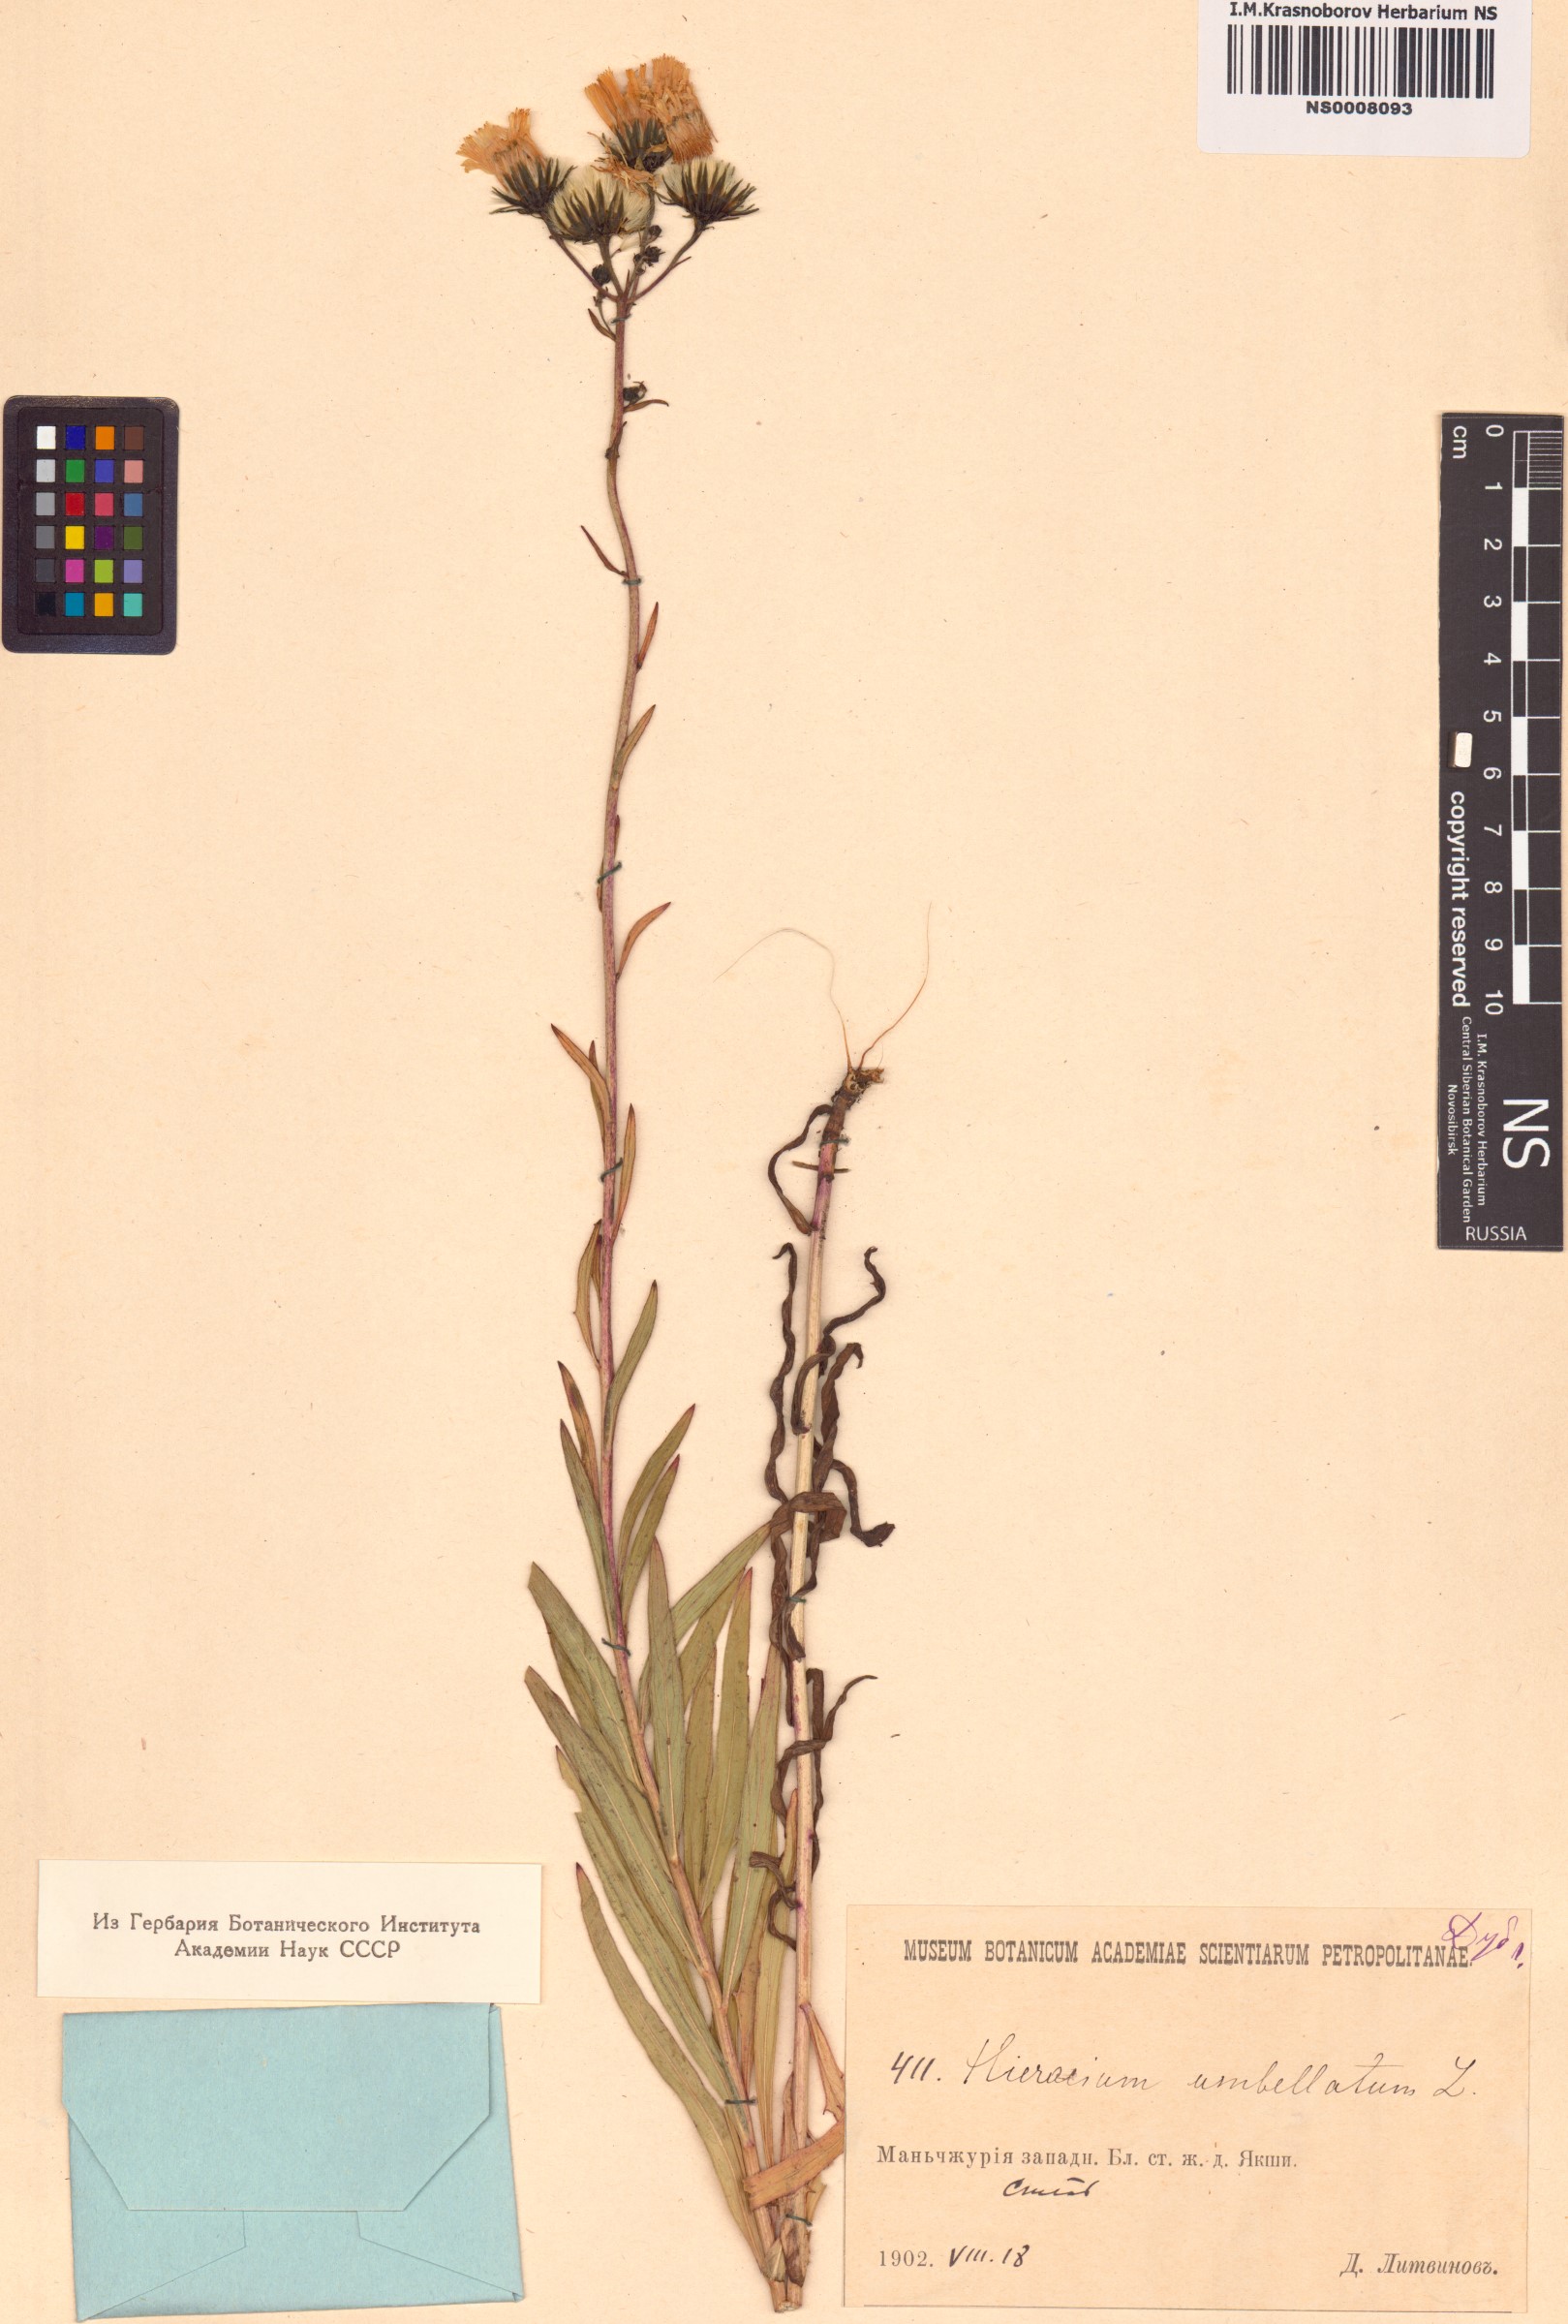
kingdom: Plantae
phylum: Tracheophyta
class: Magnoliopsida
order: Asterales
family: Asteraceae
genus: Hieracium
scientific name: Hieracium umbellatum
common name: Northern hawkweed
